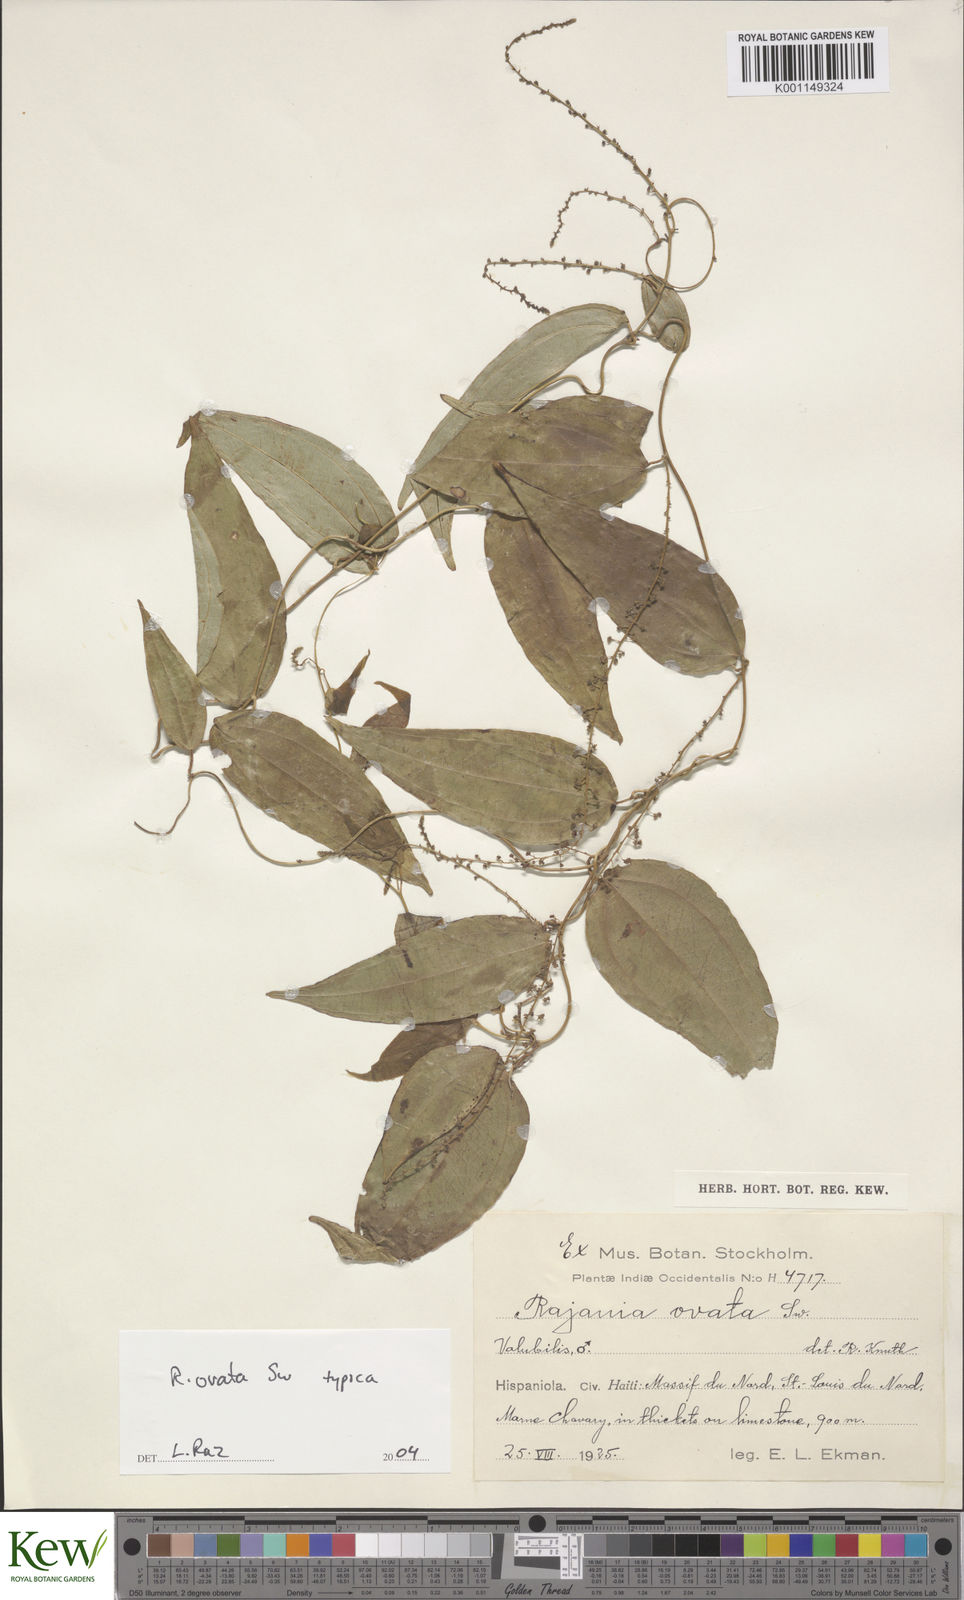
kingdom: Plantae
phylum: Tracheophyta
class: Liliopsida
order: Dioscoreales
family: Dioscoreaceae
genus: Dioscorea
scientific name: Dioscorea ovata
